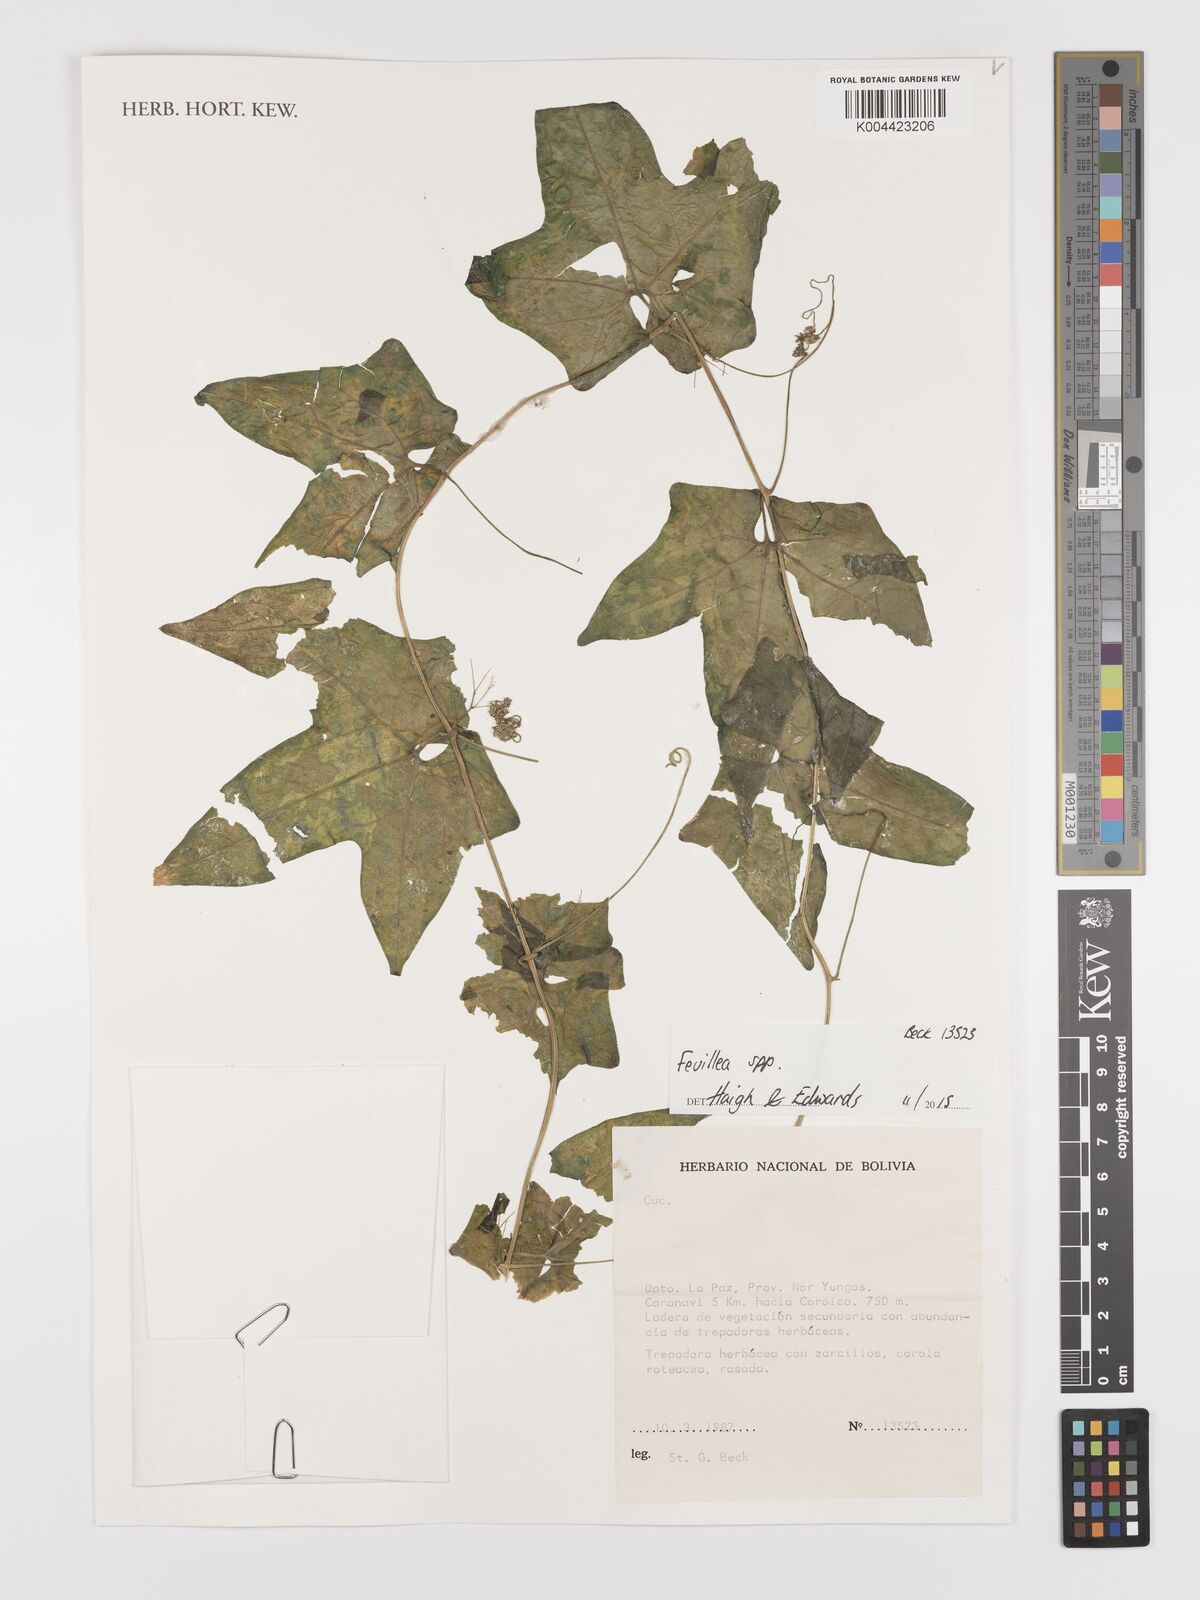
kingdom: Plantae
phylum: Tracheophyta
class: Magnoliopsida
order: Cucurbitales
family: Cucurbitaceae
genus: Fevillea
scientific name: Fevillea
